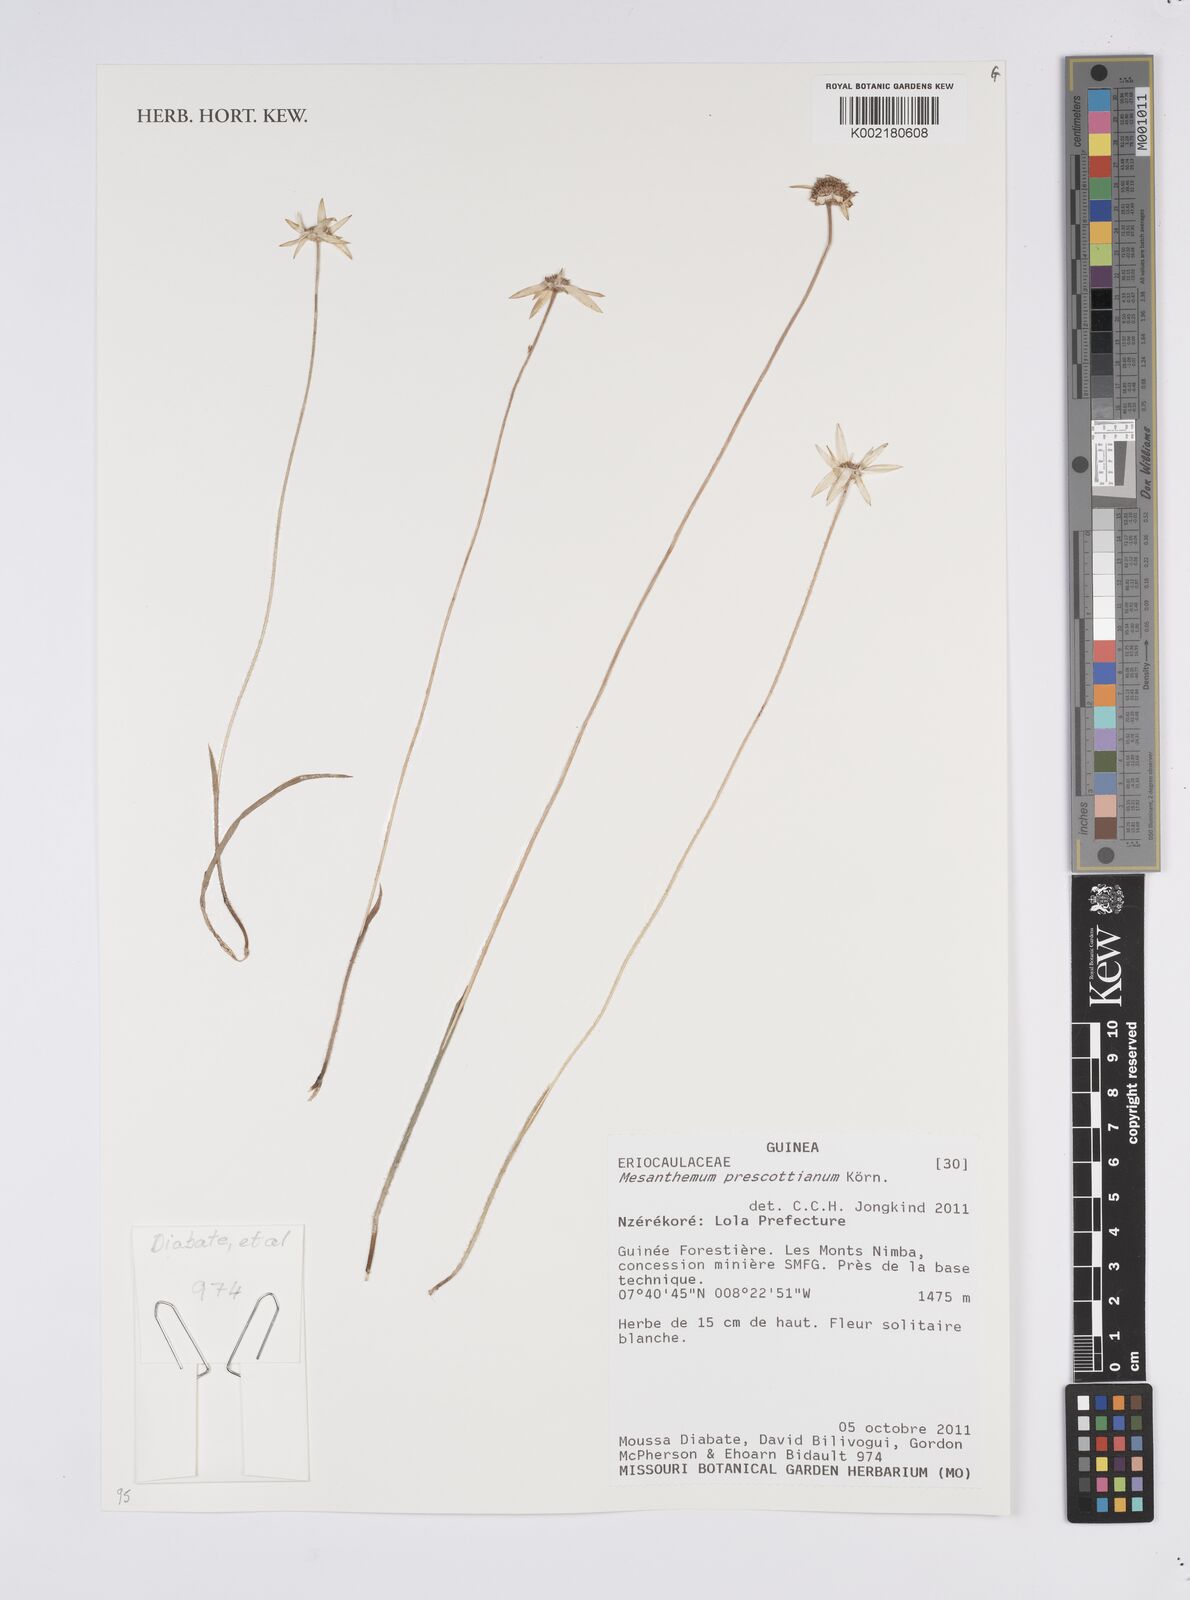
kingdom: Plantae
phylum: Tracheophyta
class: Liliopsida
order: Poales
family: Eriocaulaceae
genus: Mesanthemum
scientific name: Mesanthemum prescottianum
